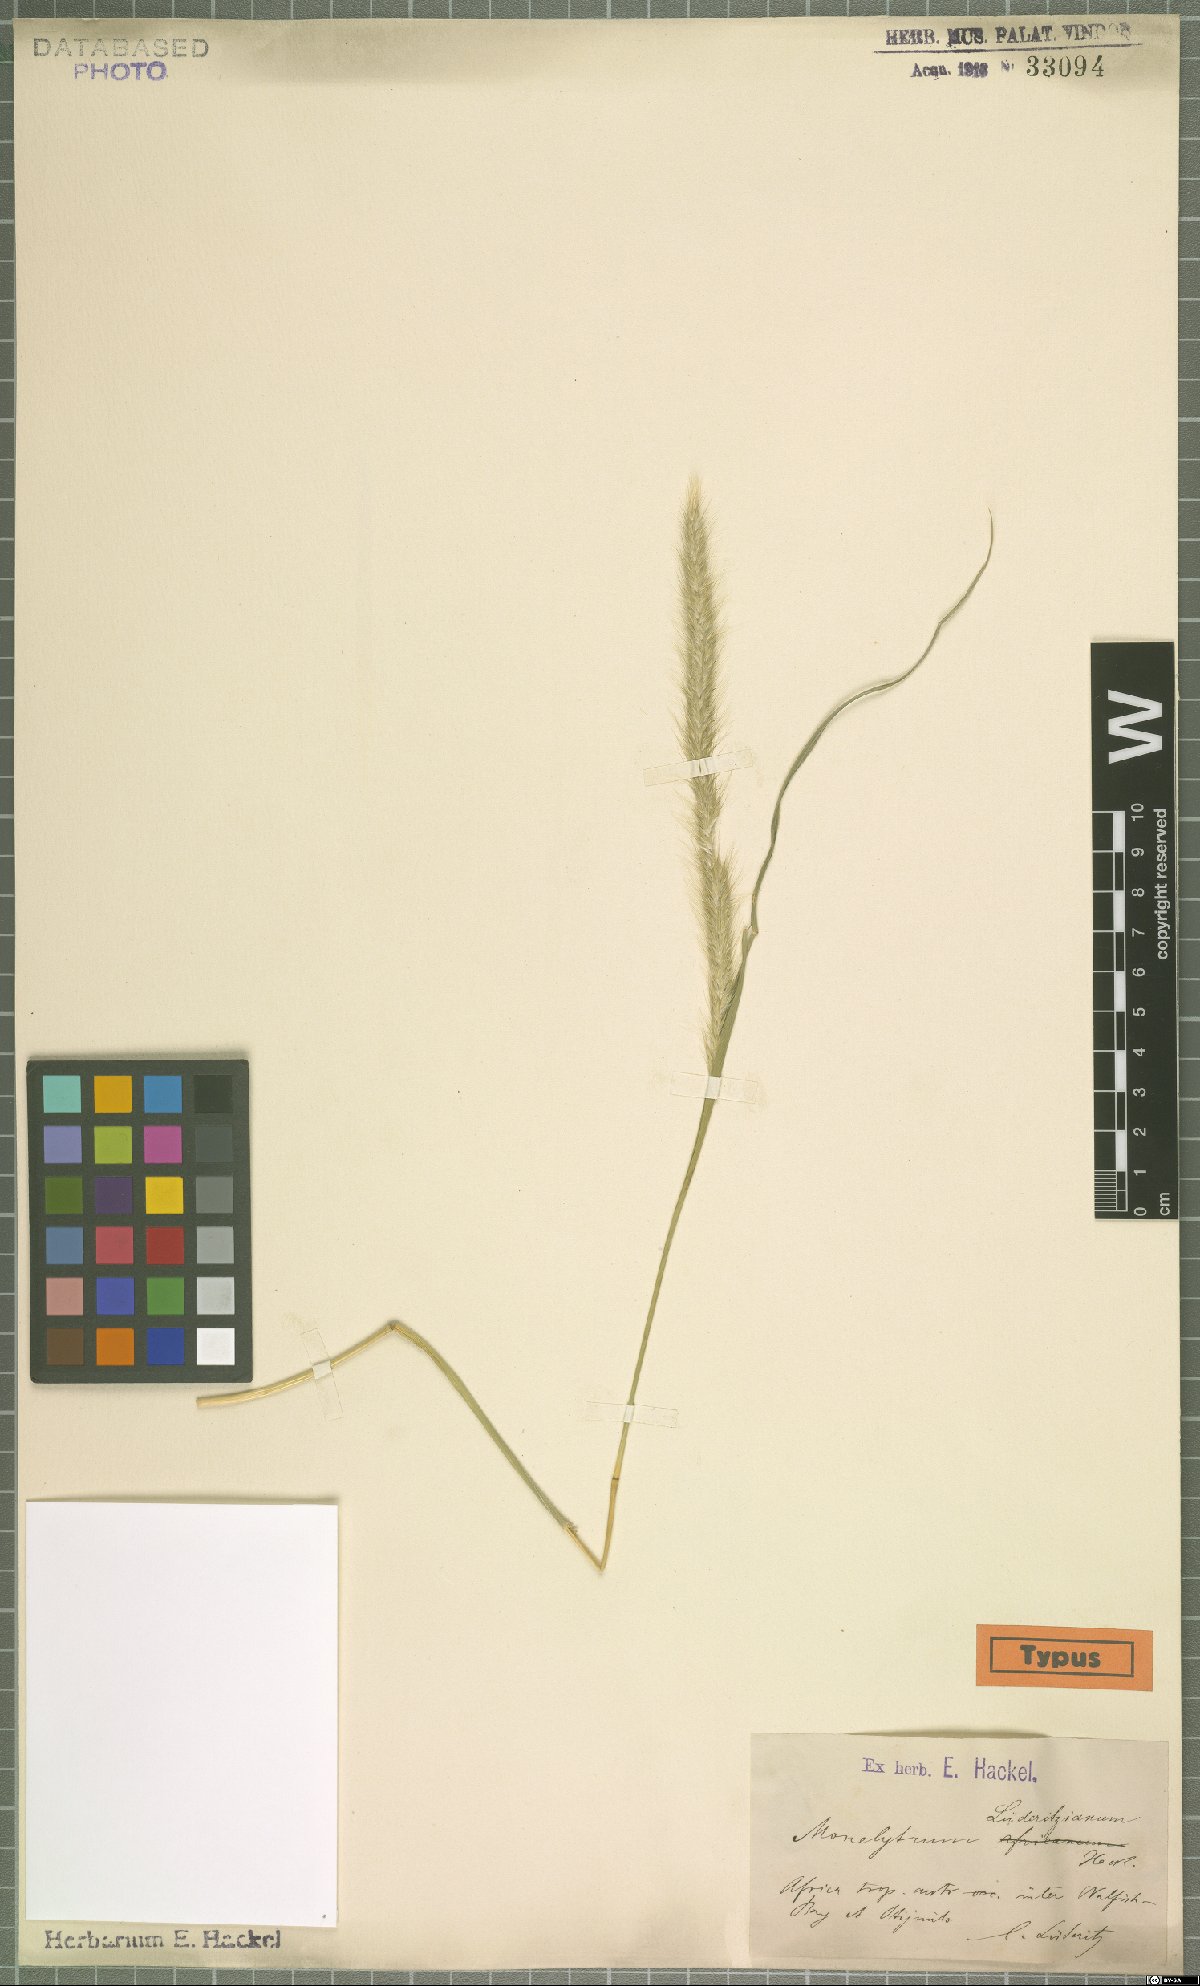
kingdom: Plantae
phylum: Tracheophyta
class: Liliopsida
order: Poales
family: Poaceae
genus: Monelytrum
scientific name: Monelytrum luederitzianum
